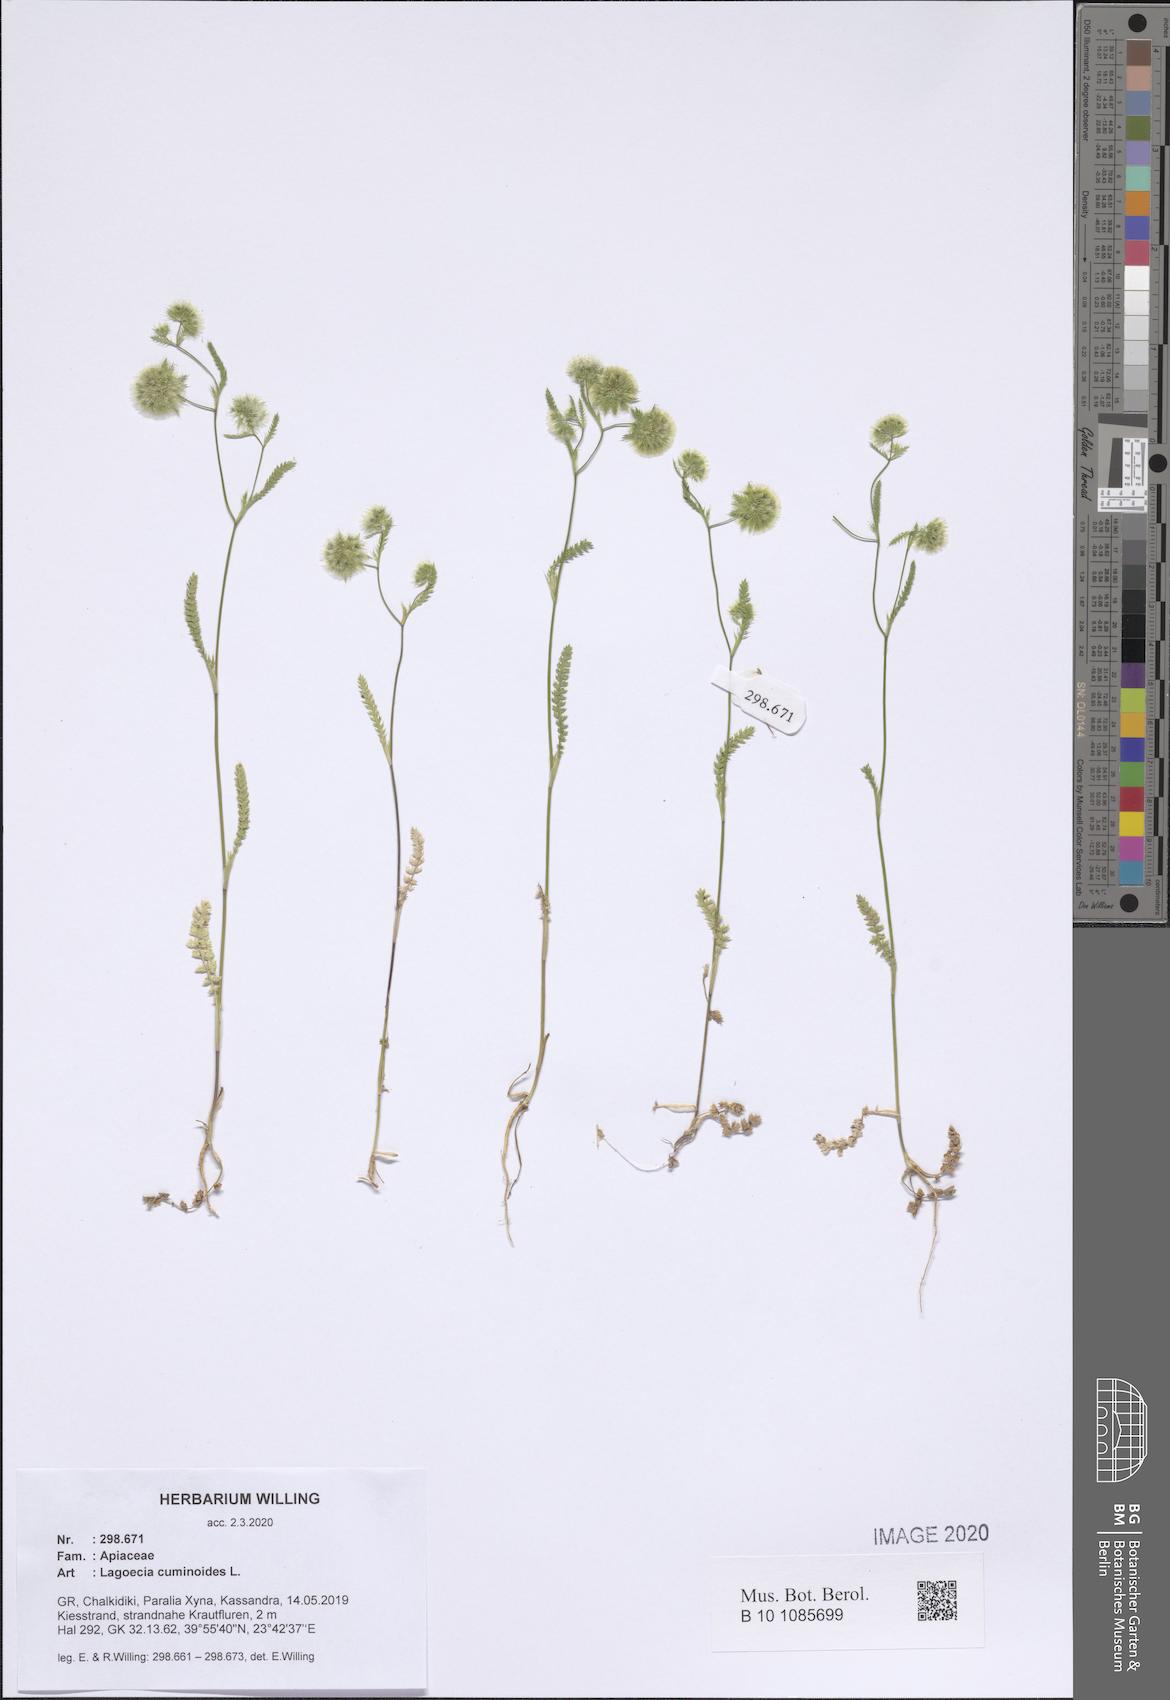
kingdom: Plantae
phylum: Tracheophyta
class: Magnoliopsida
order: Apiales
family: Apiaceae
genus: Lagoecia
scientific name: Lagoecia cuminoides
